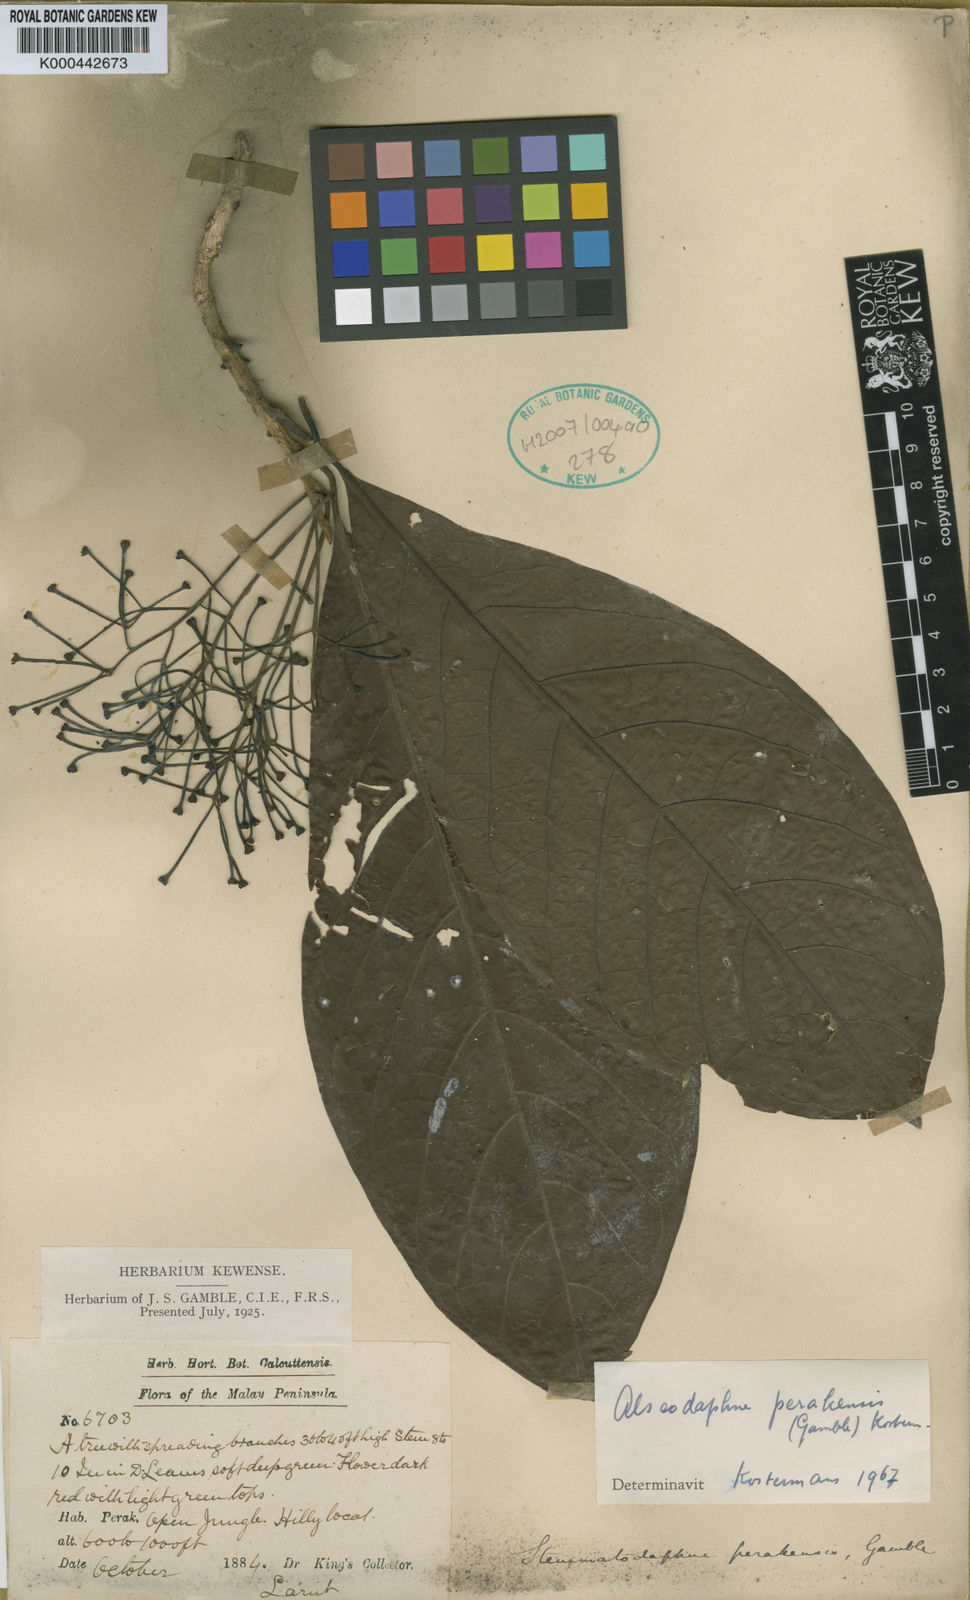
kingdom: Plantae
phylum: Tracheophyta
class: Magnoliopsida
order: Laurales
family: Lauraceae
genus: Alseodaphne
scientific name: Alseodaphne perakensis
